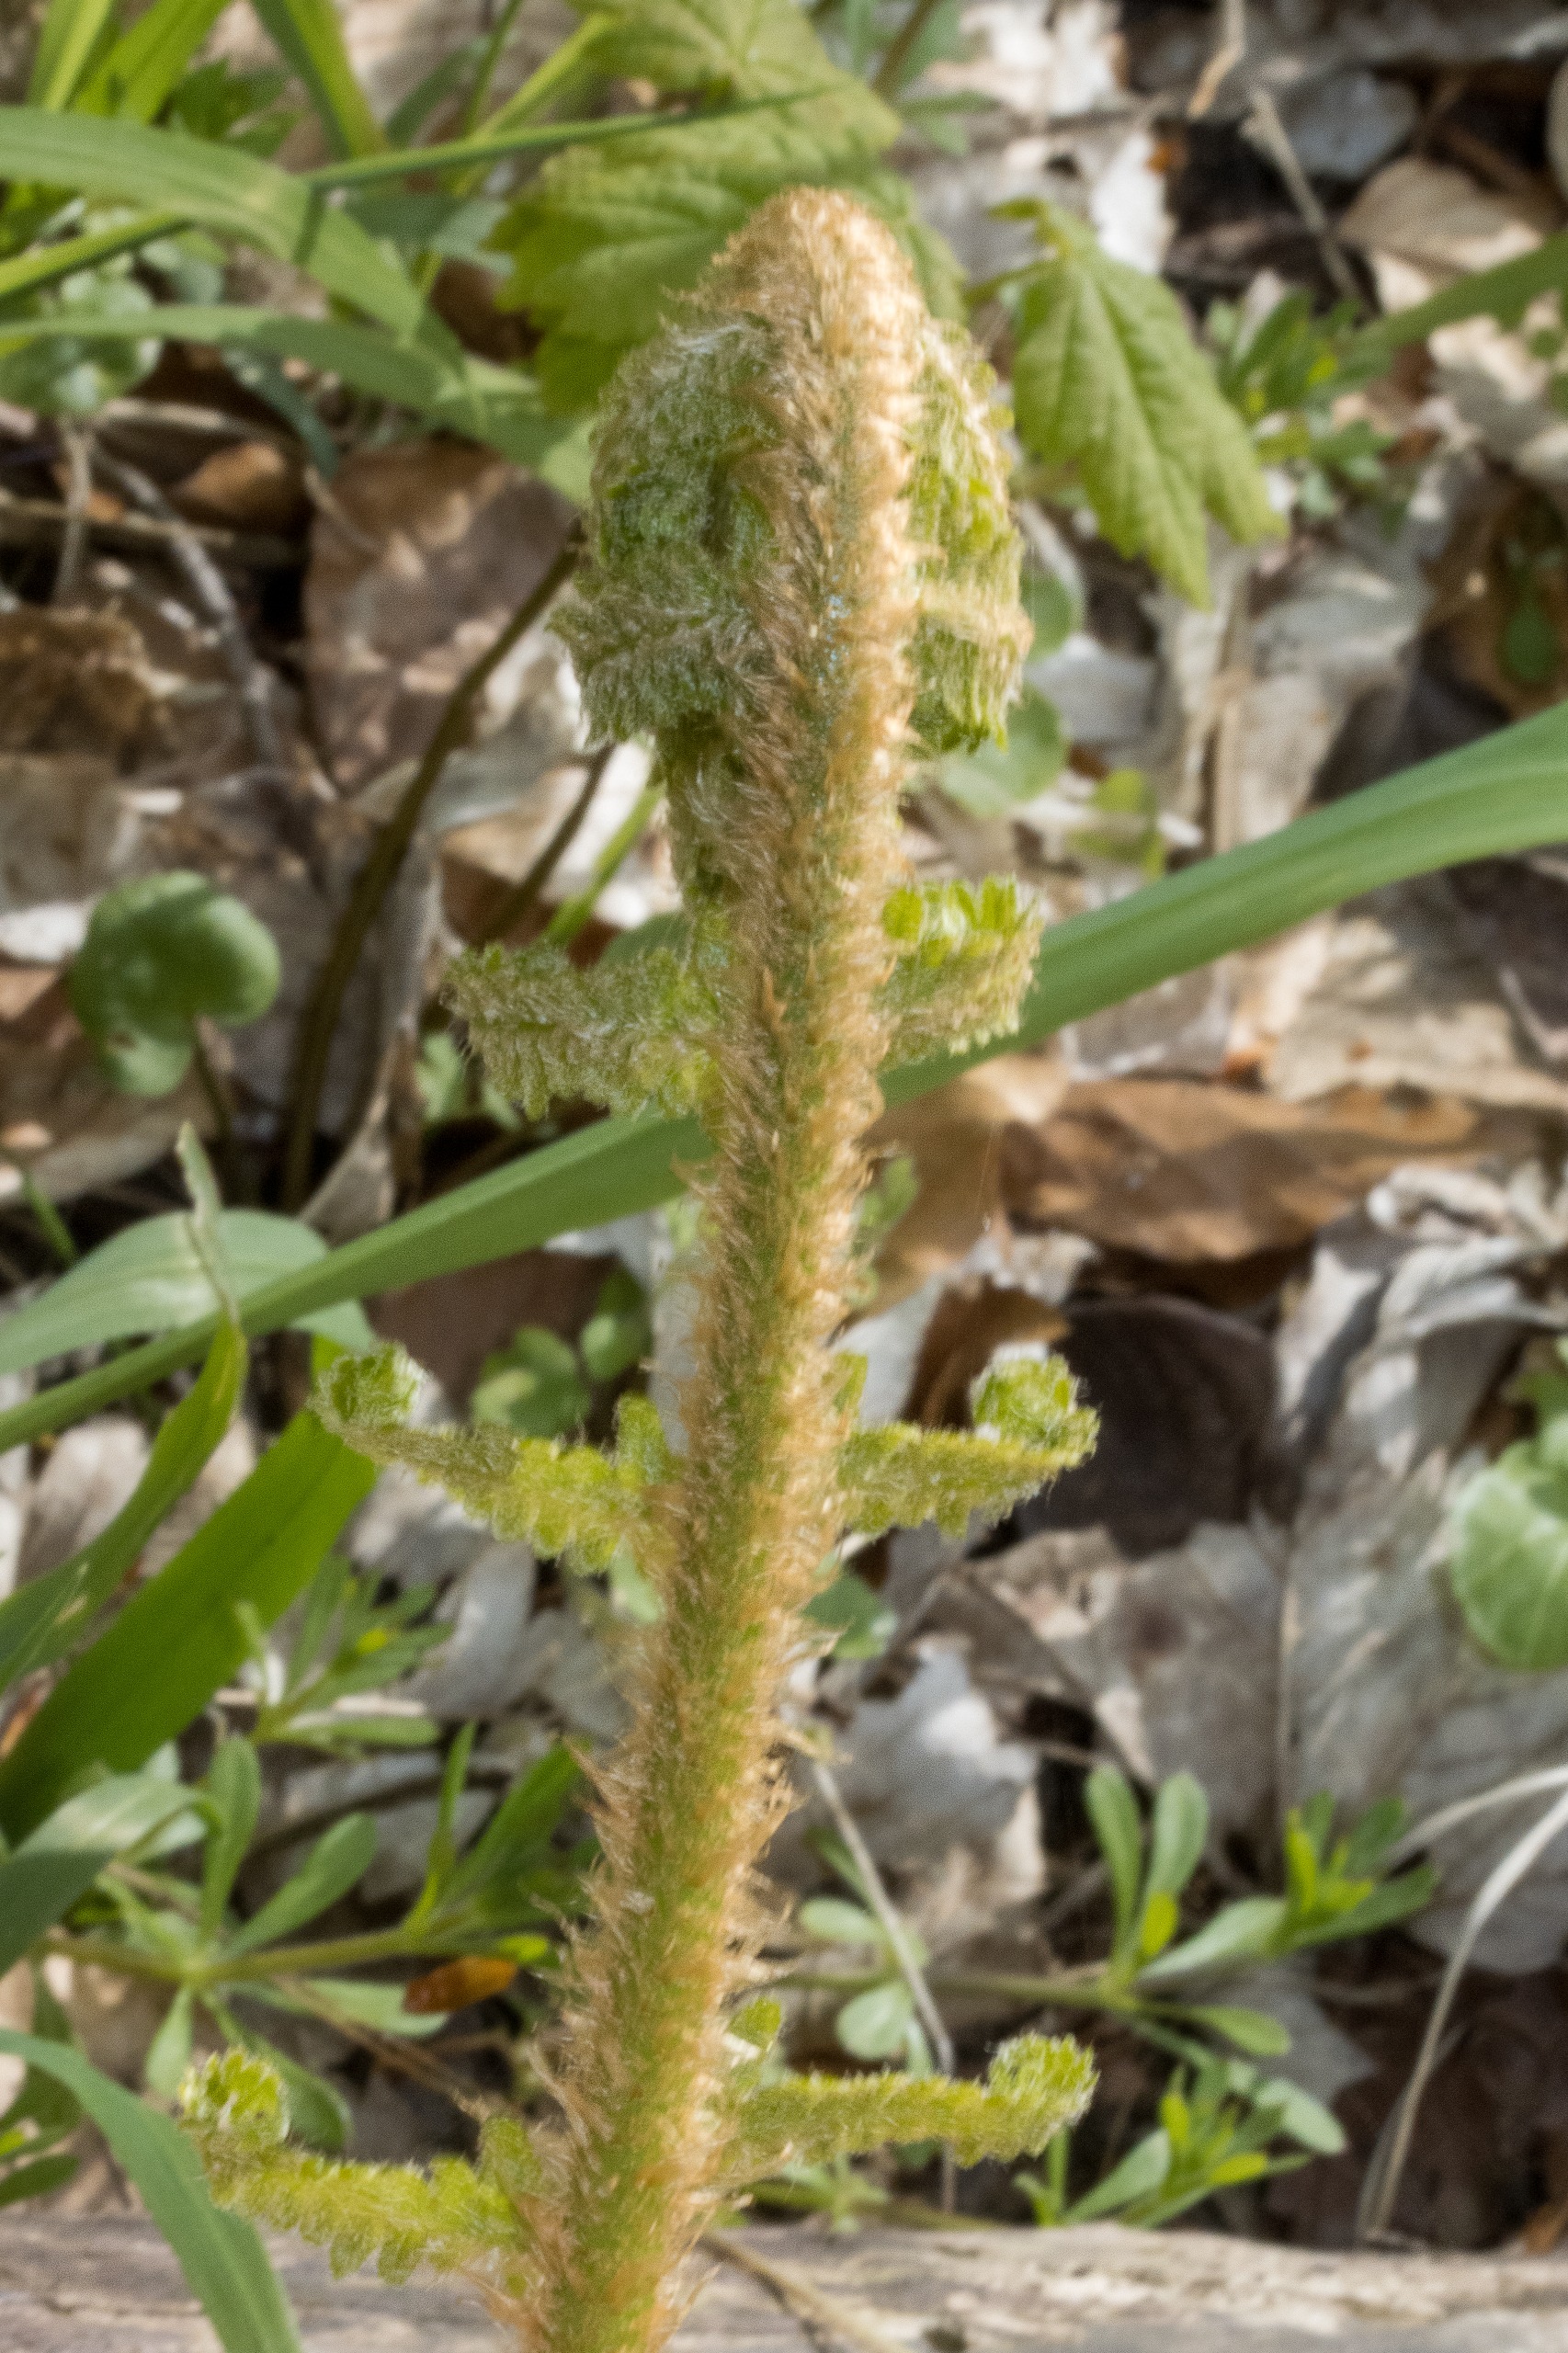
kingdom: Plantae
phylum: Tracheophyta
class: Polypodiopsida
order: Polypodiales
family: Dryopteridaceae
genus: Dryopteris
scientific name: Dryopteris filix-mas
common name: Almindelig mangeløv
